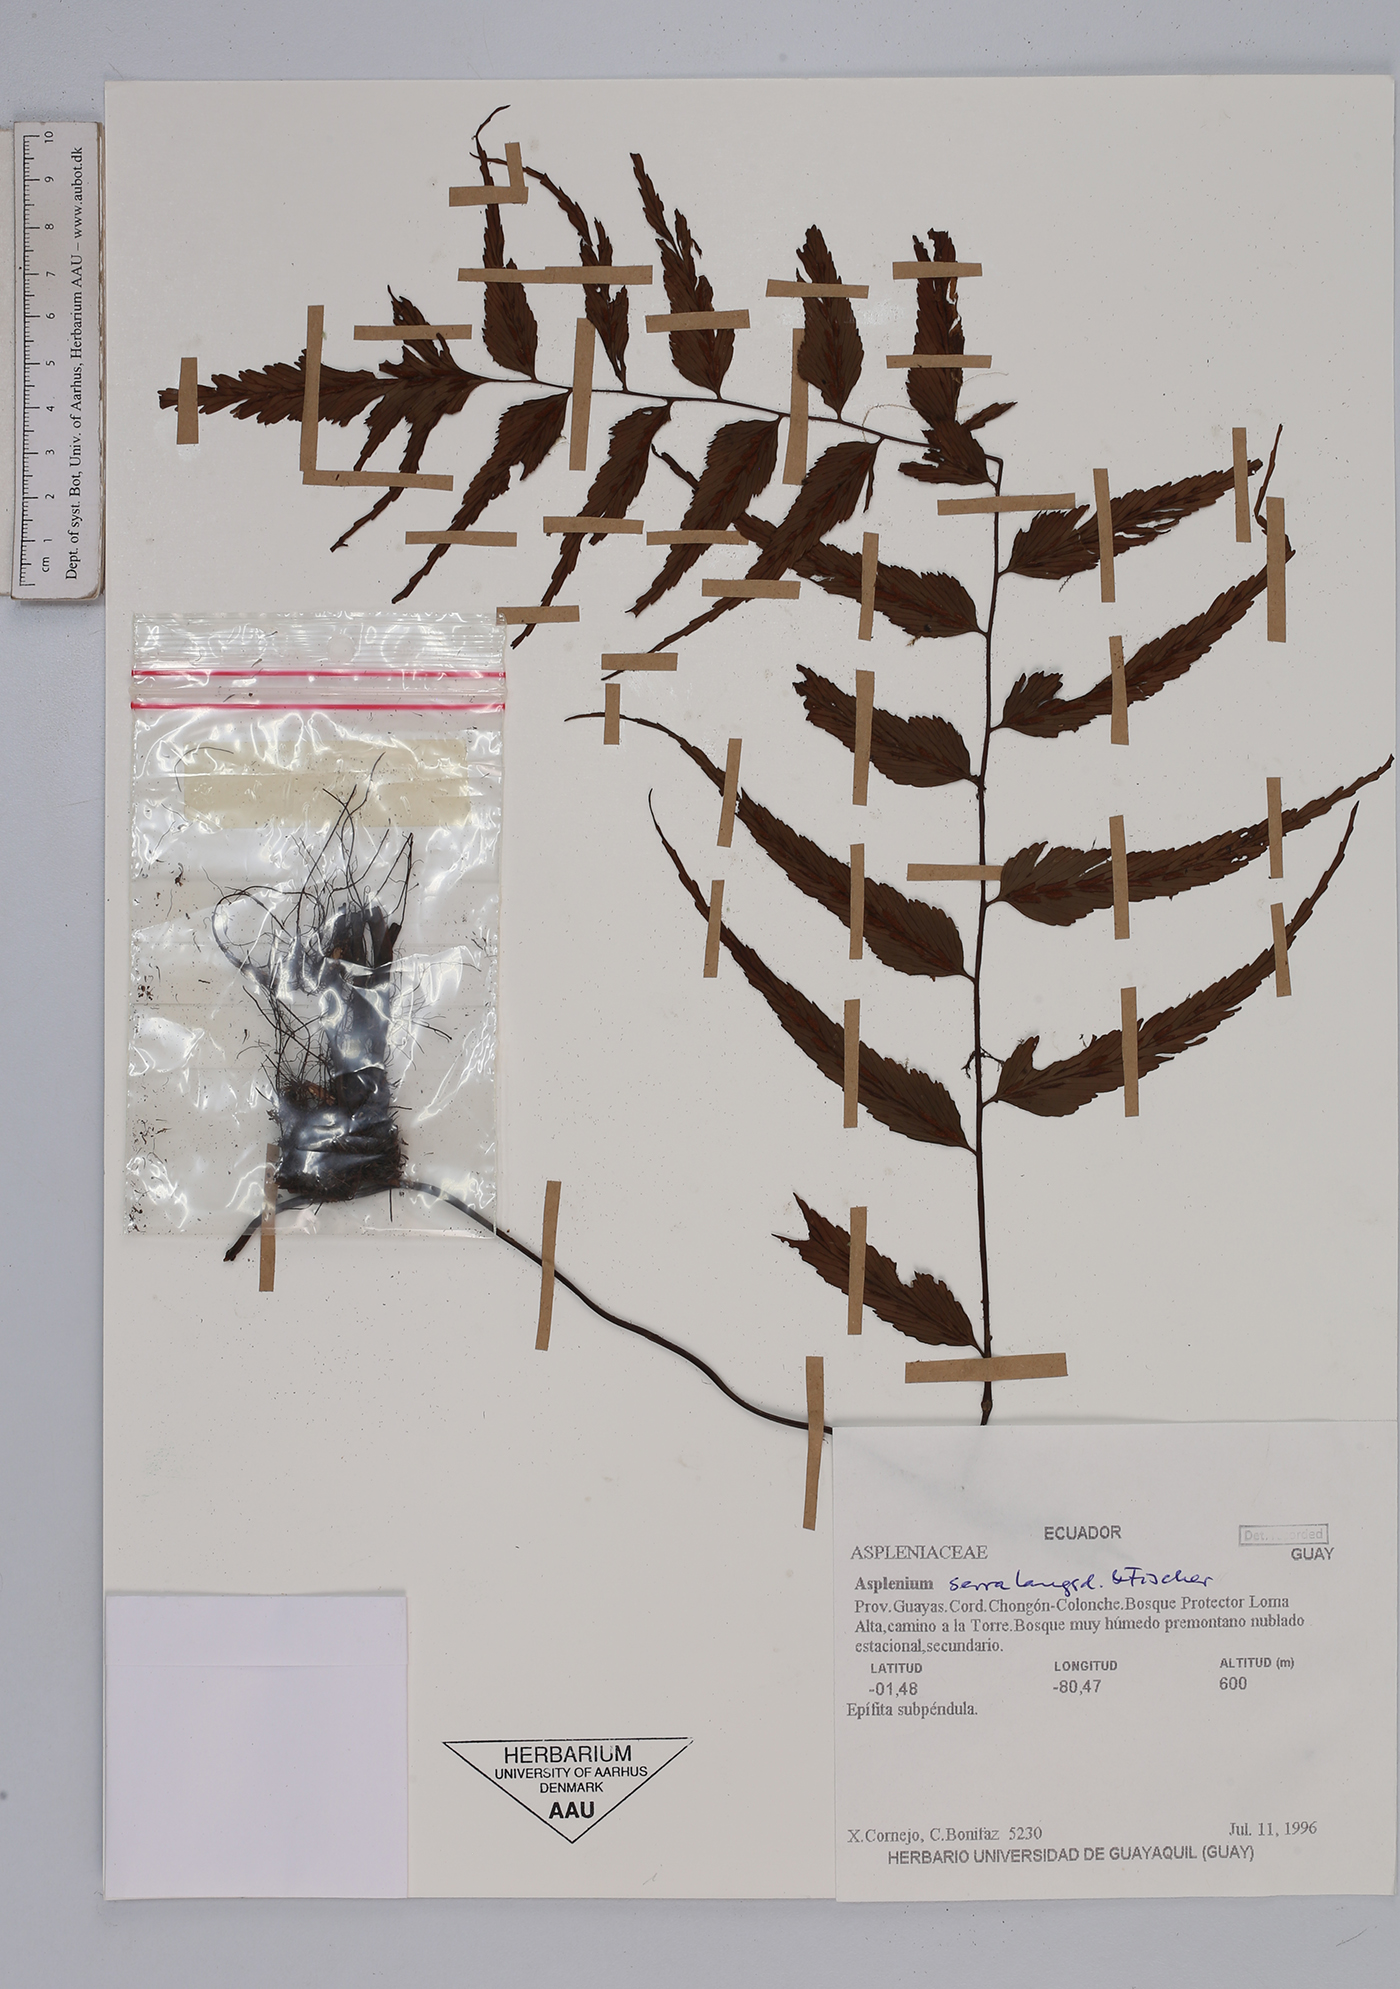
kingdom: Plantae
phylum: Tracheophyta
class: Polypodiopsida
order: Polypodiales
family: Aspleniaceae
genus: Asplenium
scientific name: Asplenium serra
